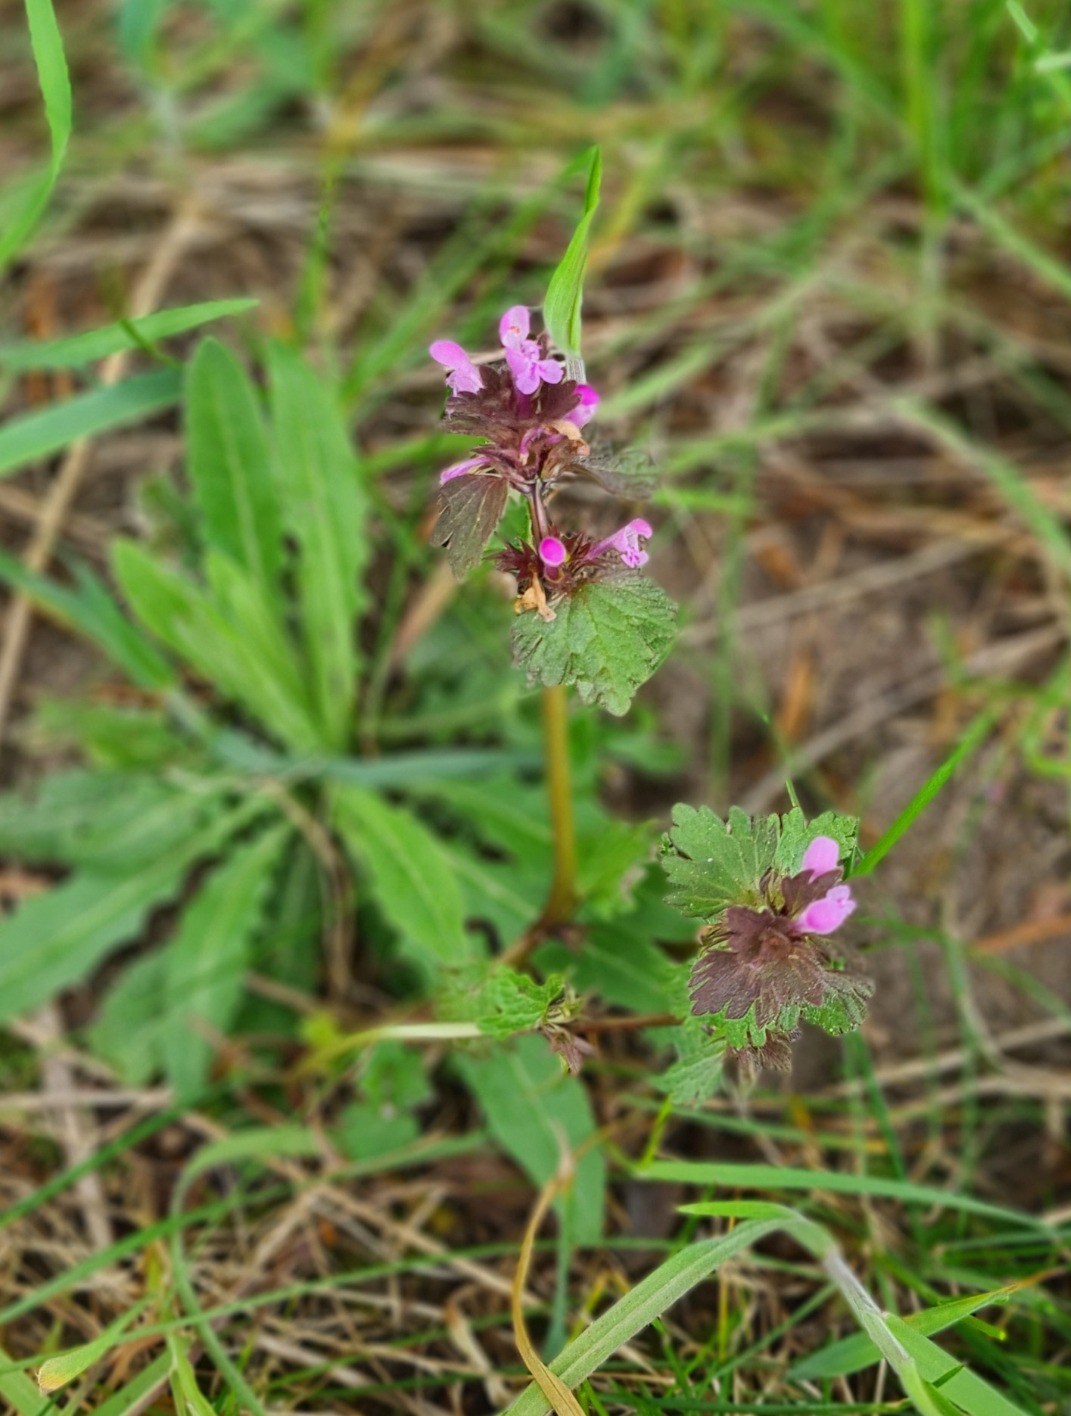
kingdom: Plantae
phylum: Tracheophyta
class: Magnoliopsida
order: Lamiales
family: Lamiaceae
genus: Lamium
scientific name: Lamium hybridum
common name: Fliget tvetand
